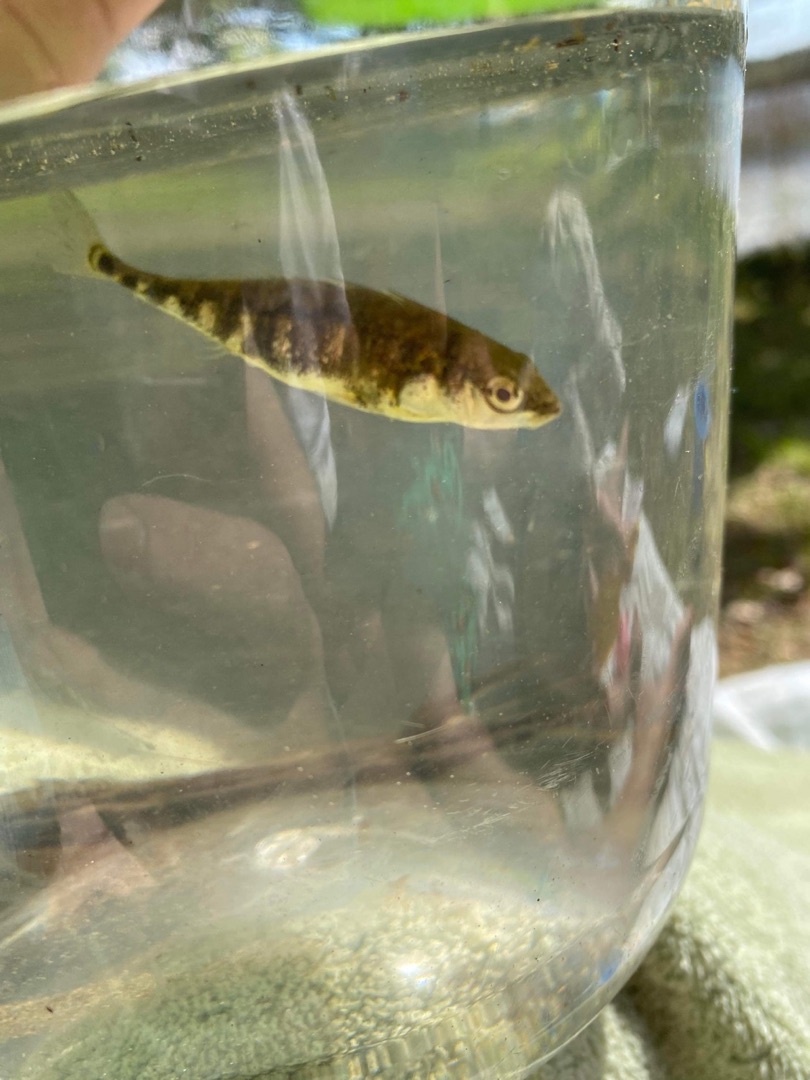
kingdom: Animalia
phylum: Chordata
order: Gasterosteiformes
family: Gasterosteidae
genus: Gasterosteus
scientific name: Gasterosteus aculeatus
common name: Trepigget hundestejle
